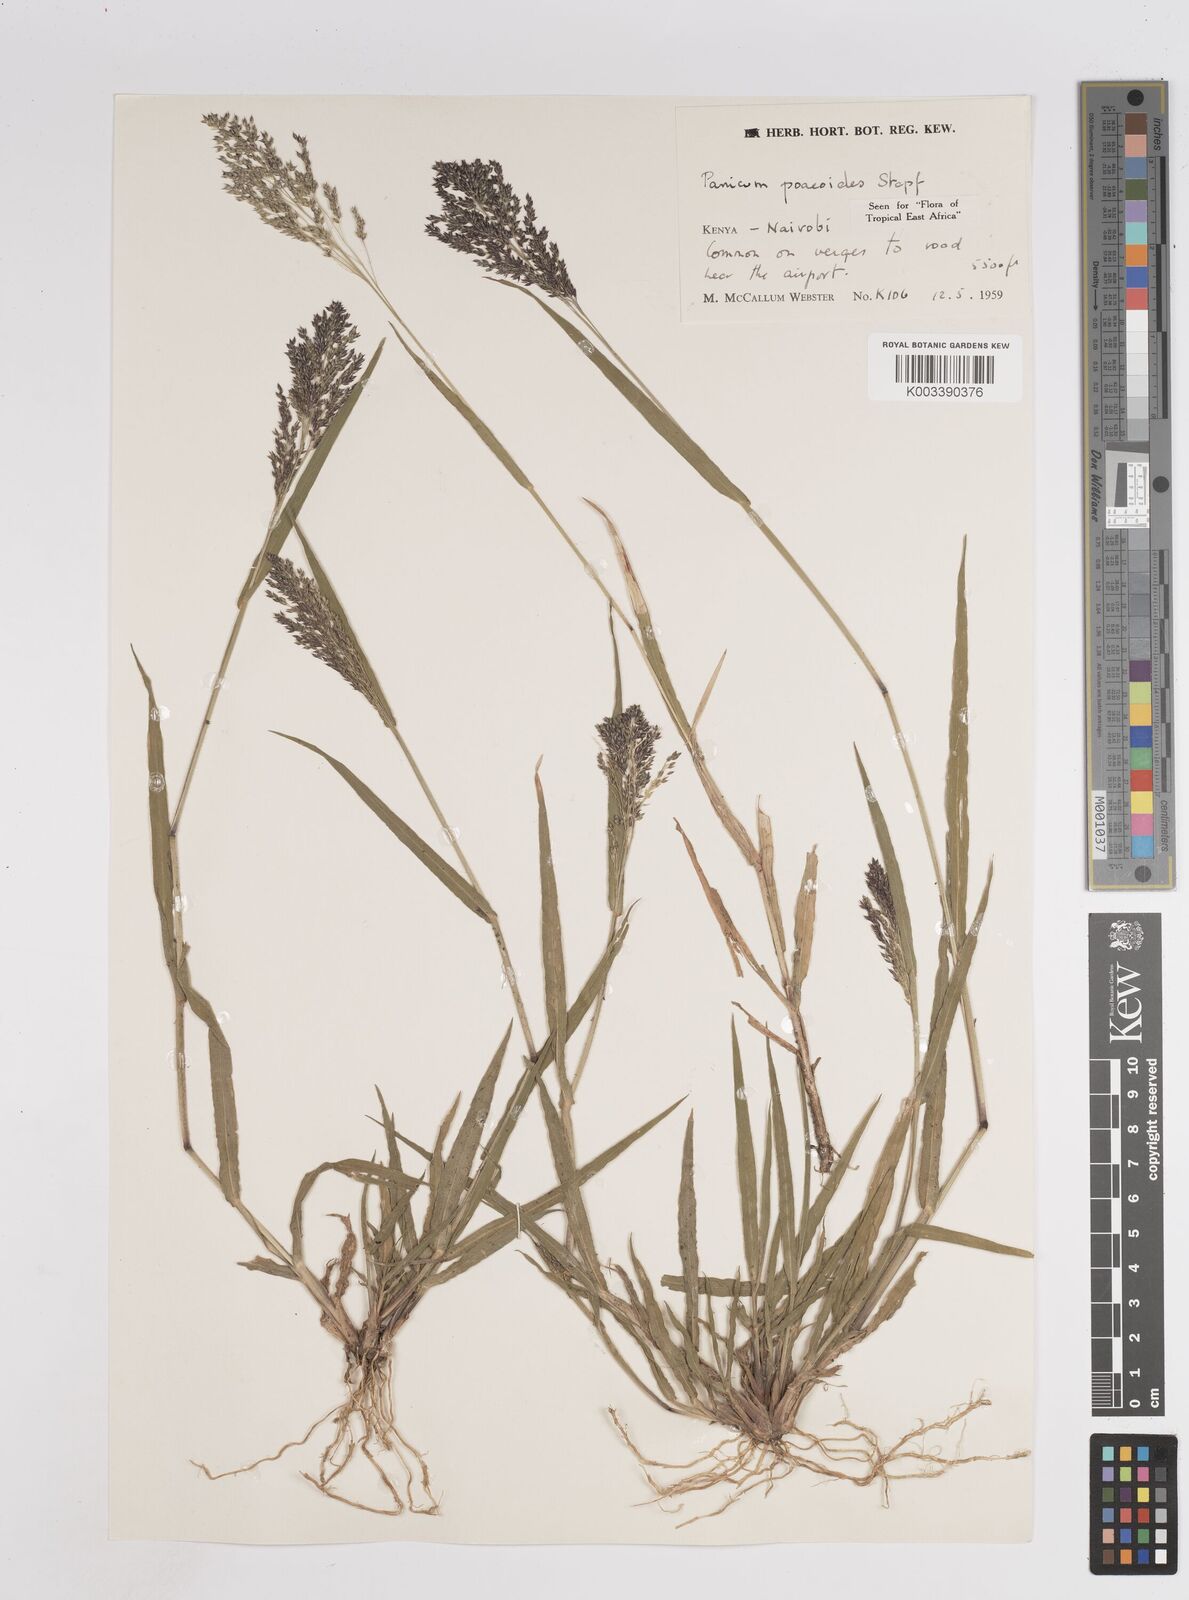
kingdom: Plantae
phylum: Tracheophyta
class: Liliopsida
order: Poales
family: Poaceae
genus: Panicum
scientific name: Panicum
